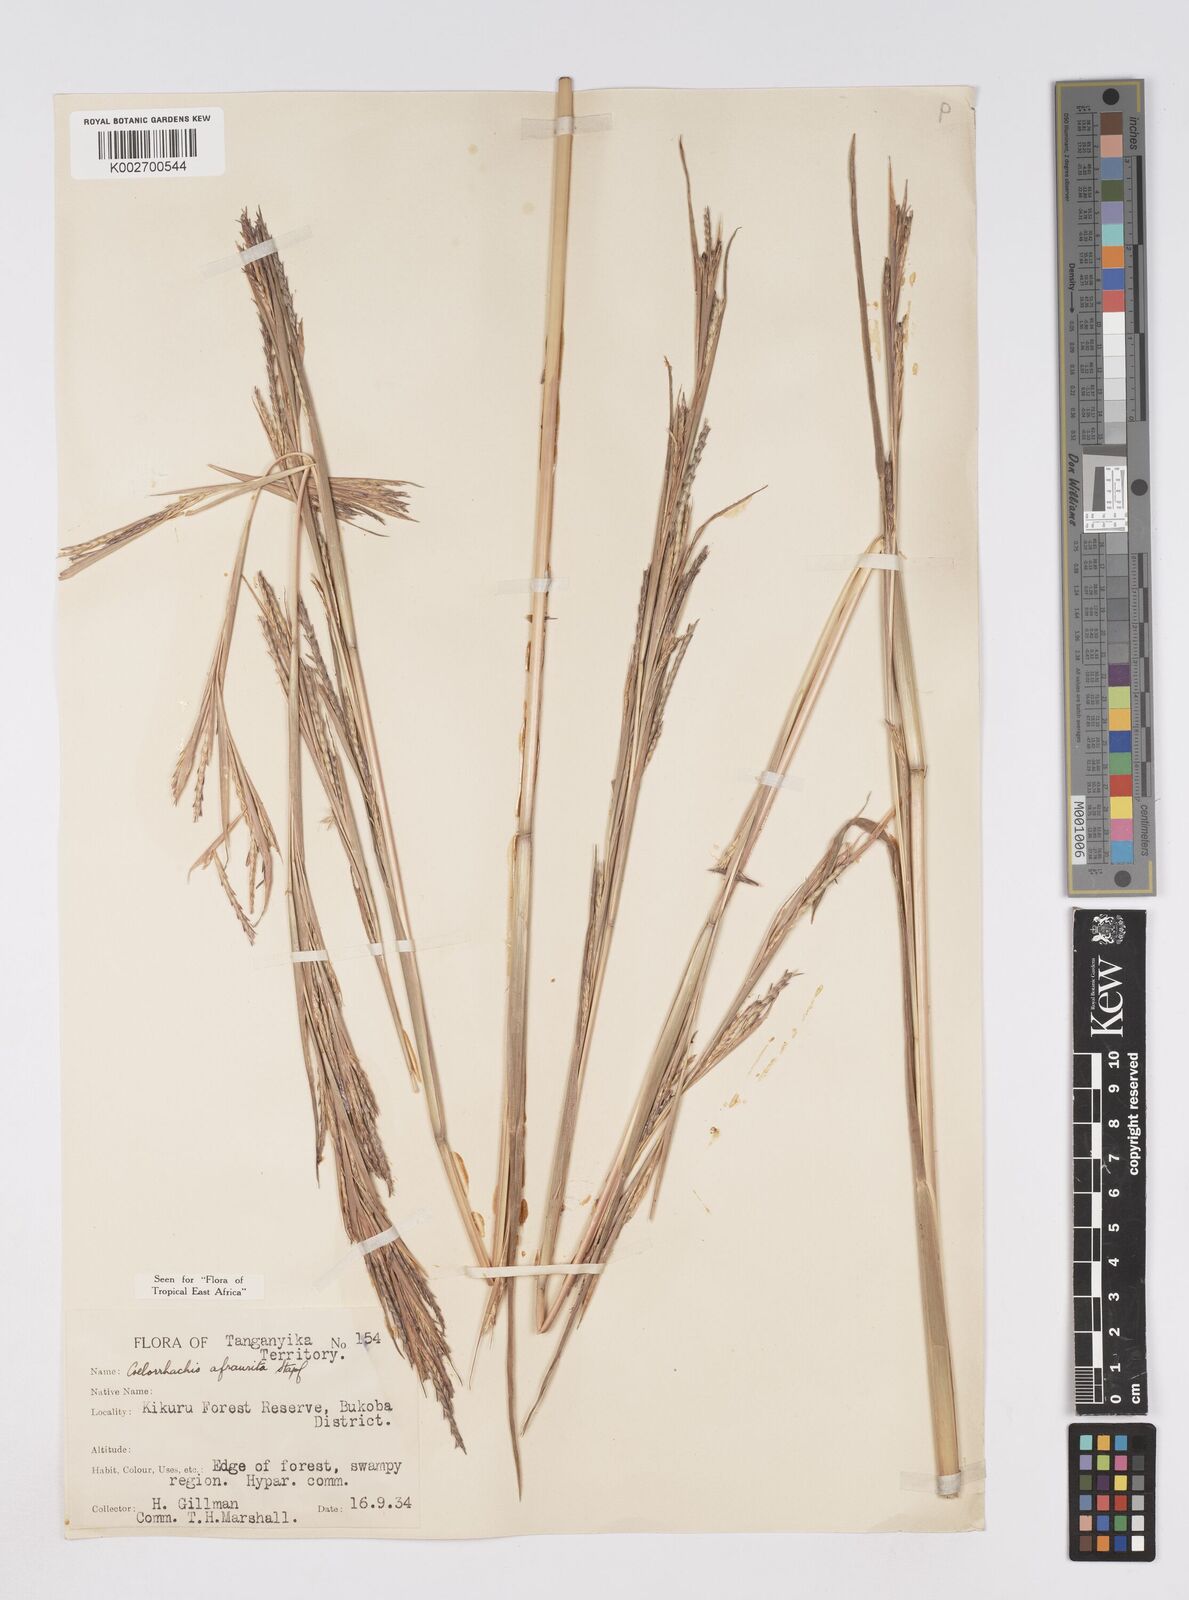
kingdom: Plantae
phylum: Tracheophyta
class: Liliopsida
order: Poales
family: Poaceae
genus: Rottboellia
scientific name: Rottboellia afraurita
